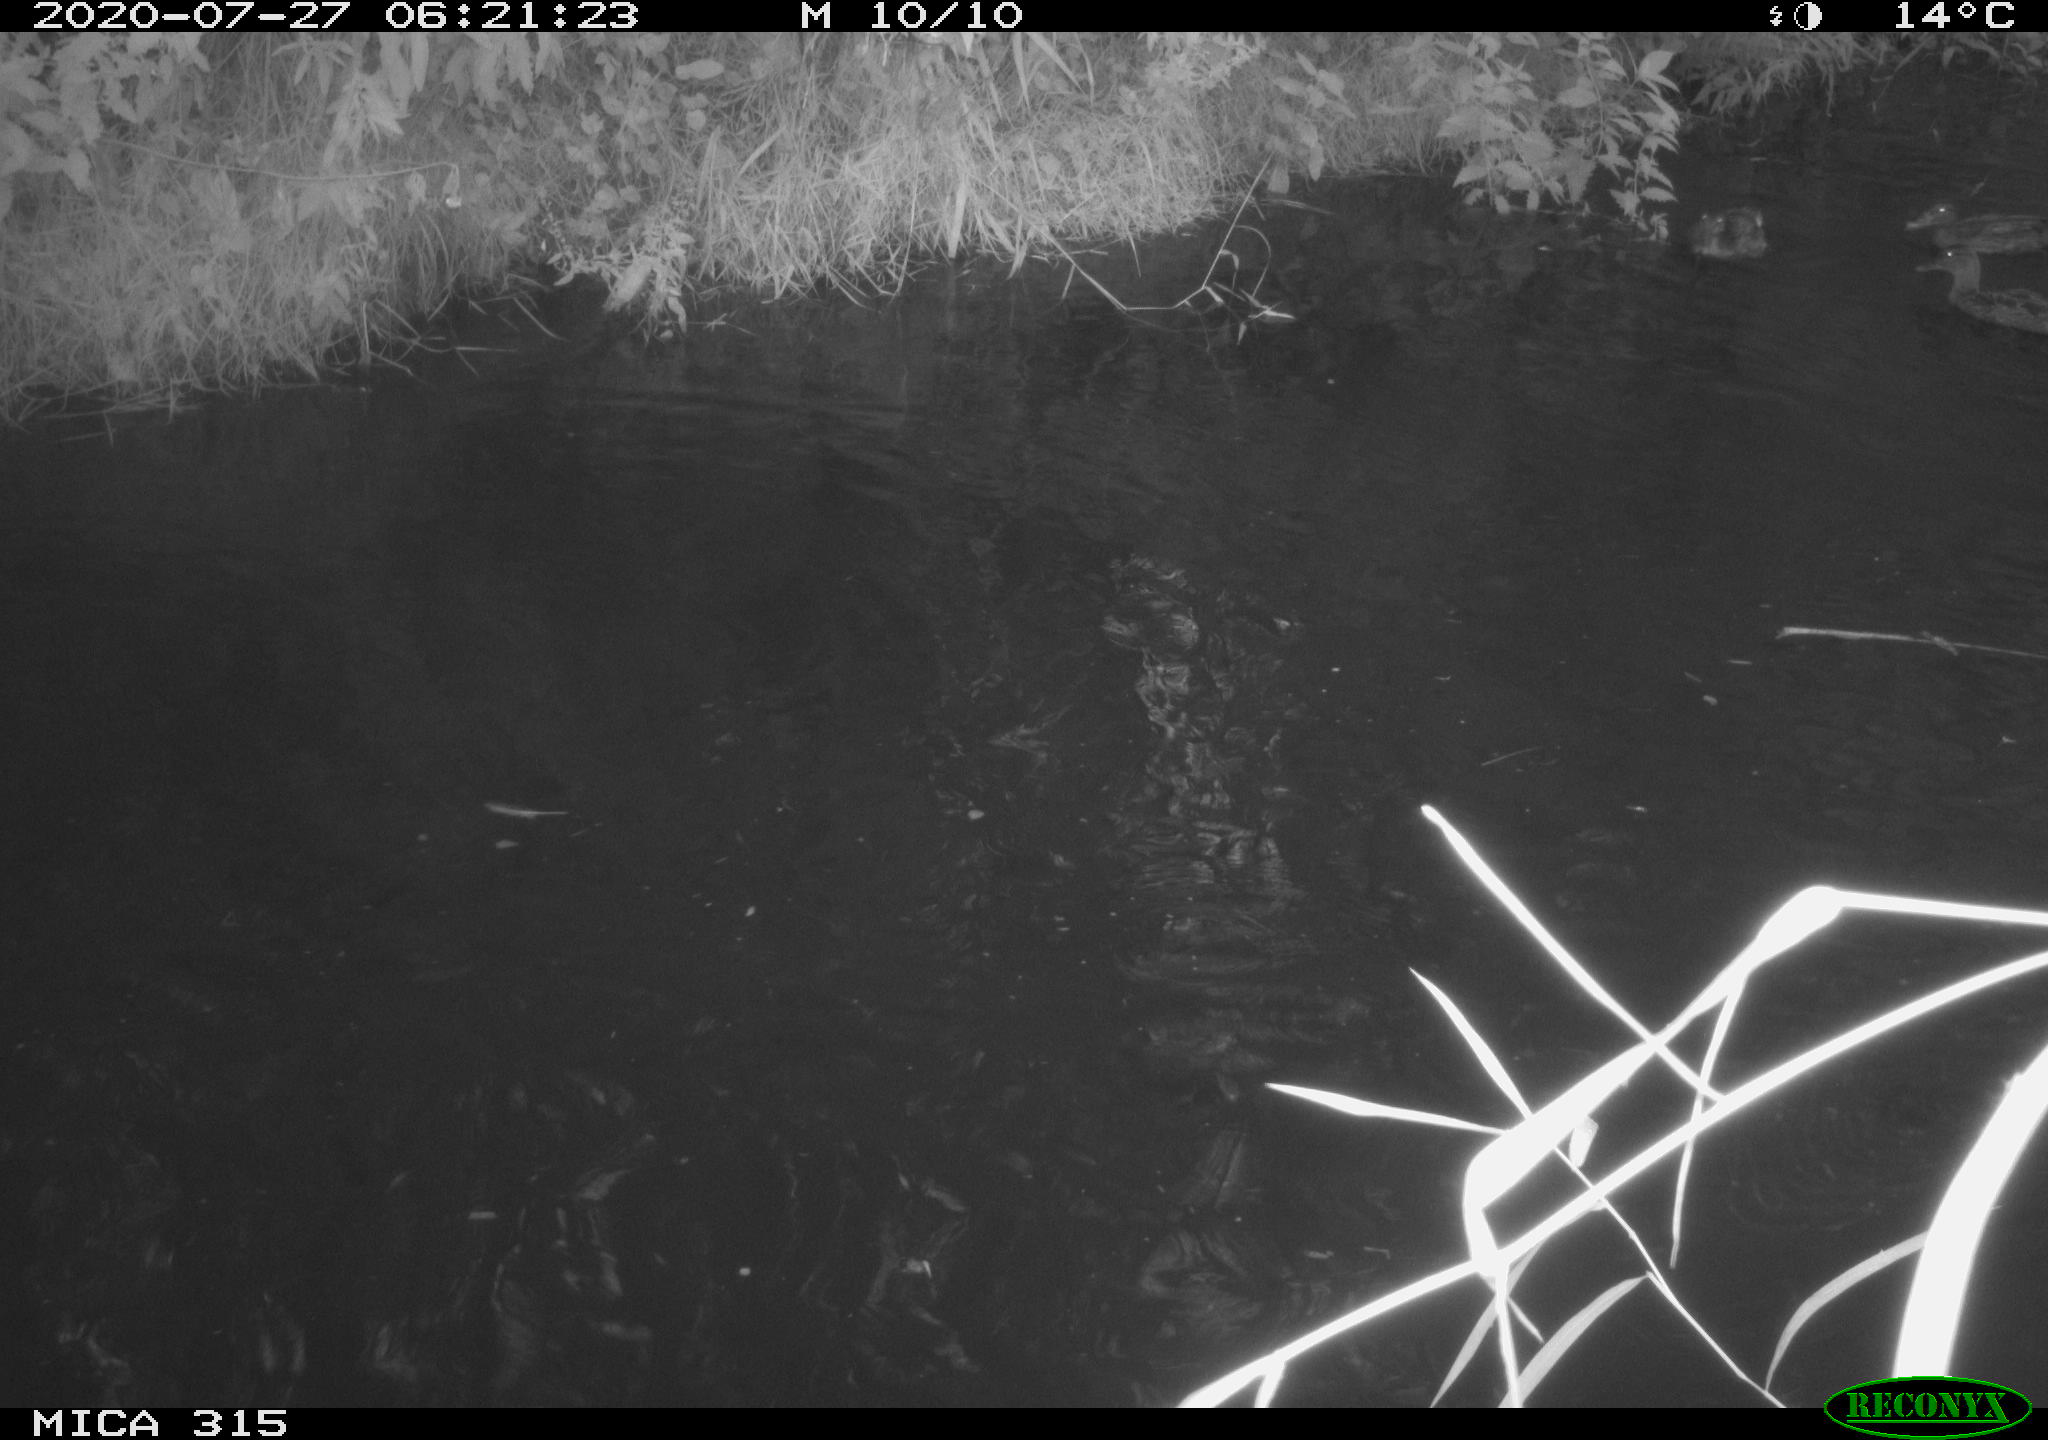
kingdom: Animalia
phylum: Chordata
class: Aves
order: Anseriformes
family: Anatidae
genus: Anas
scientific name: Anas platyrhynchos
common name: Mallard
